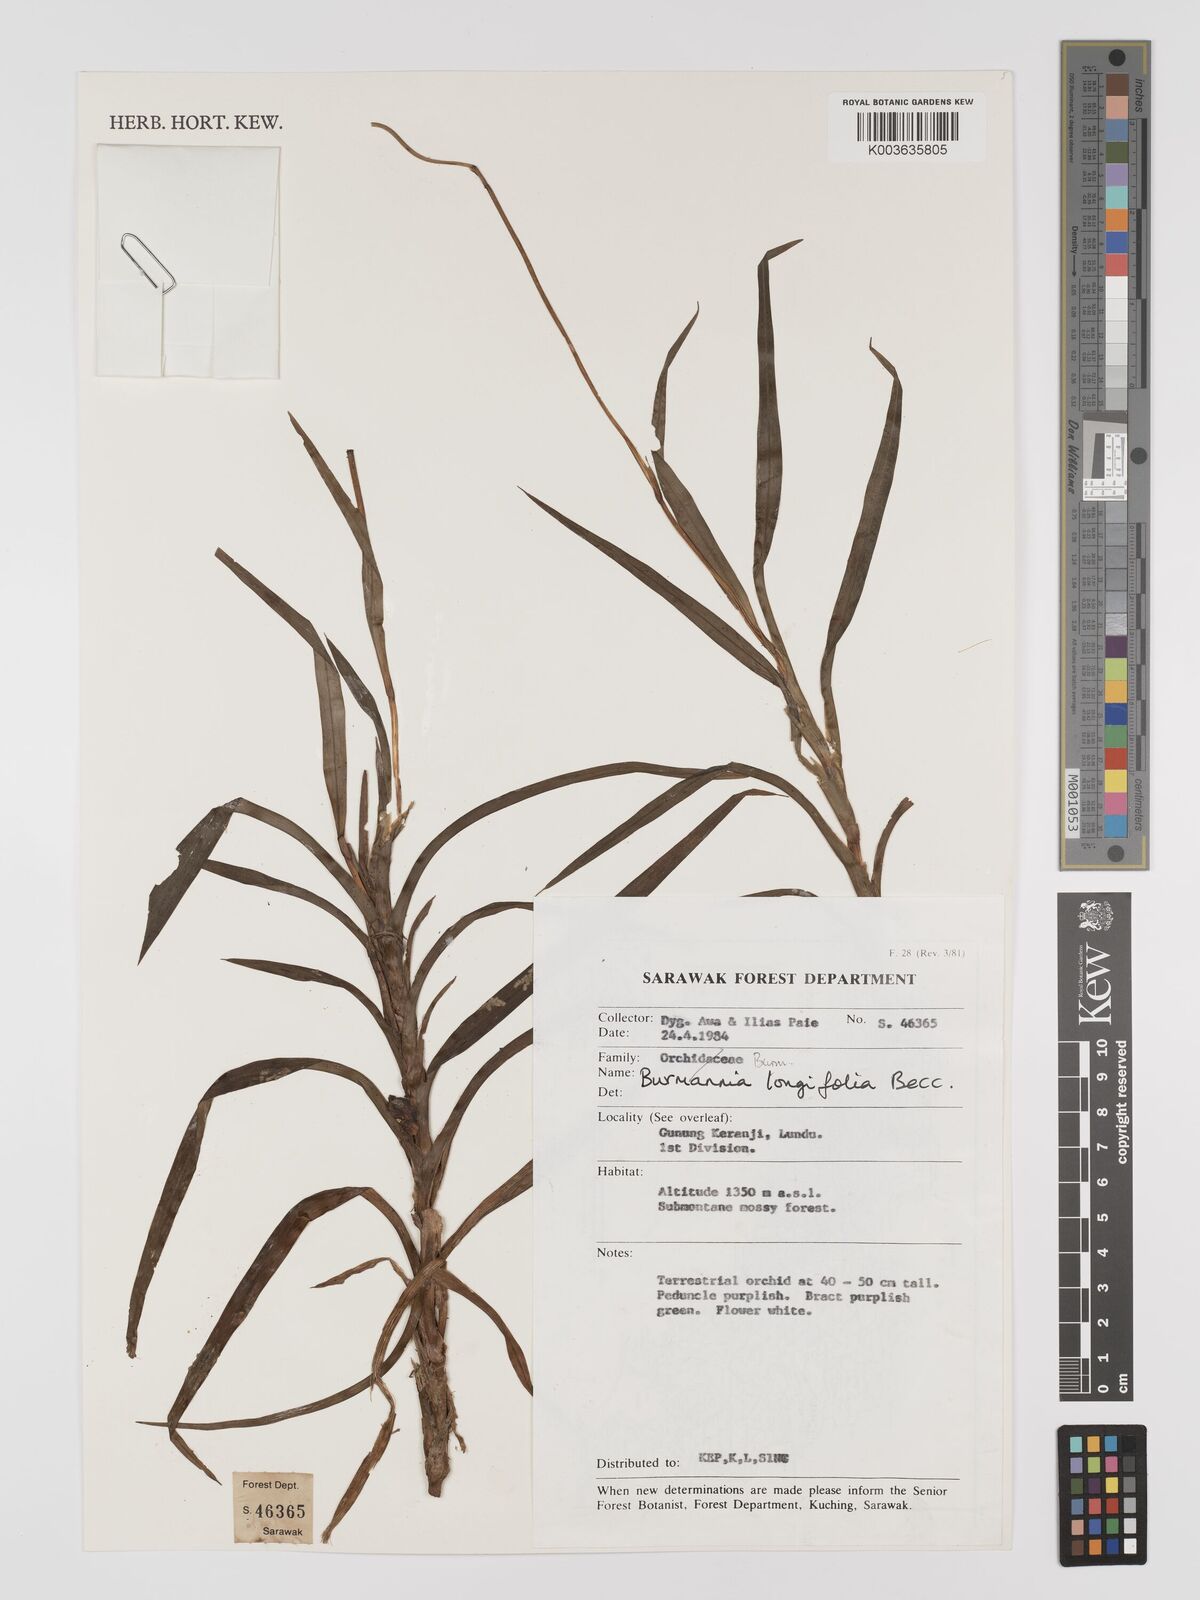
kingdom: Plantae
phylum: Tracheophyta
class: Liliopsida
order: Dioscoreales
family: Burmanniaceae
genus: Burmannia
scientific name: Burmannia longifolia
